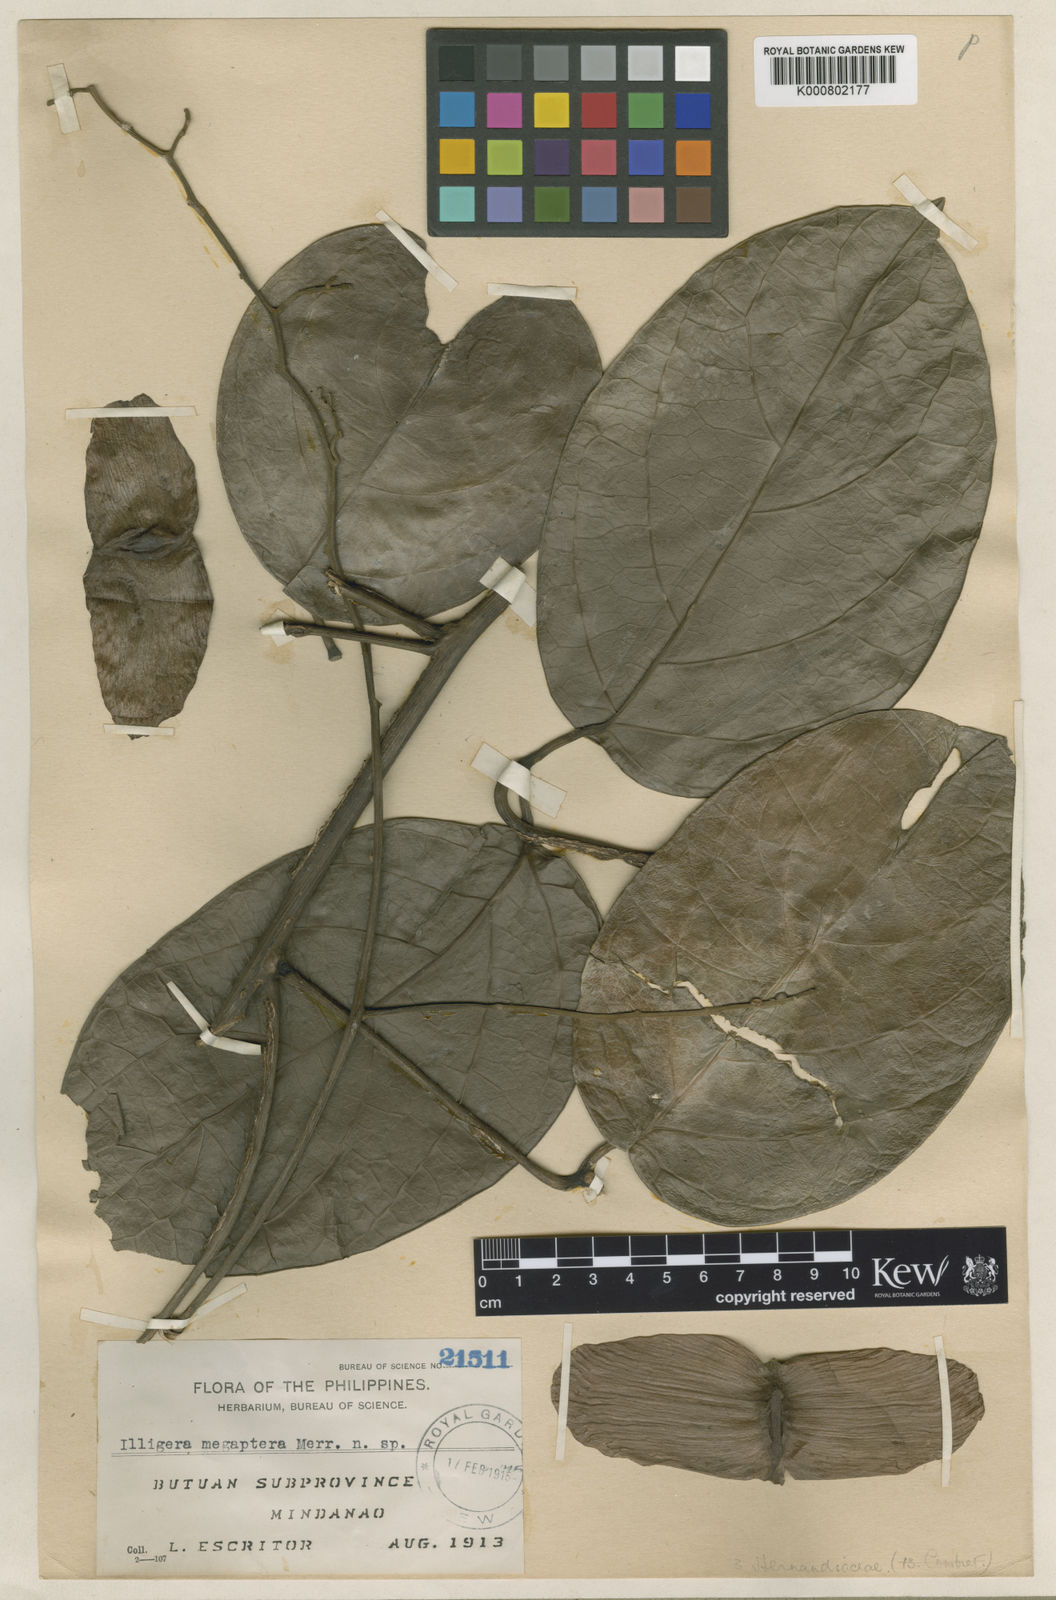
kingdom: Plantae
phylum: Tracheophyta
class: Magnoliopsida
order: Laurales
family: Hernandiaceae
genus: Illigera
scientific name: Illigera megaptera
